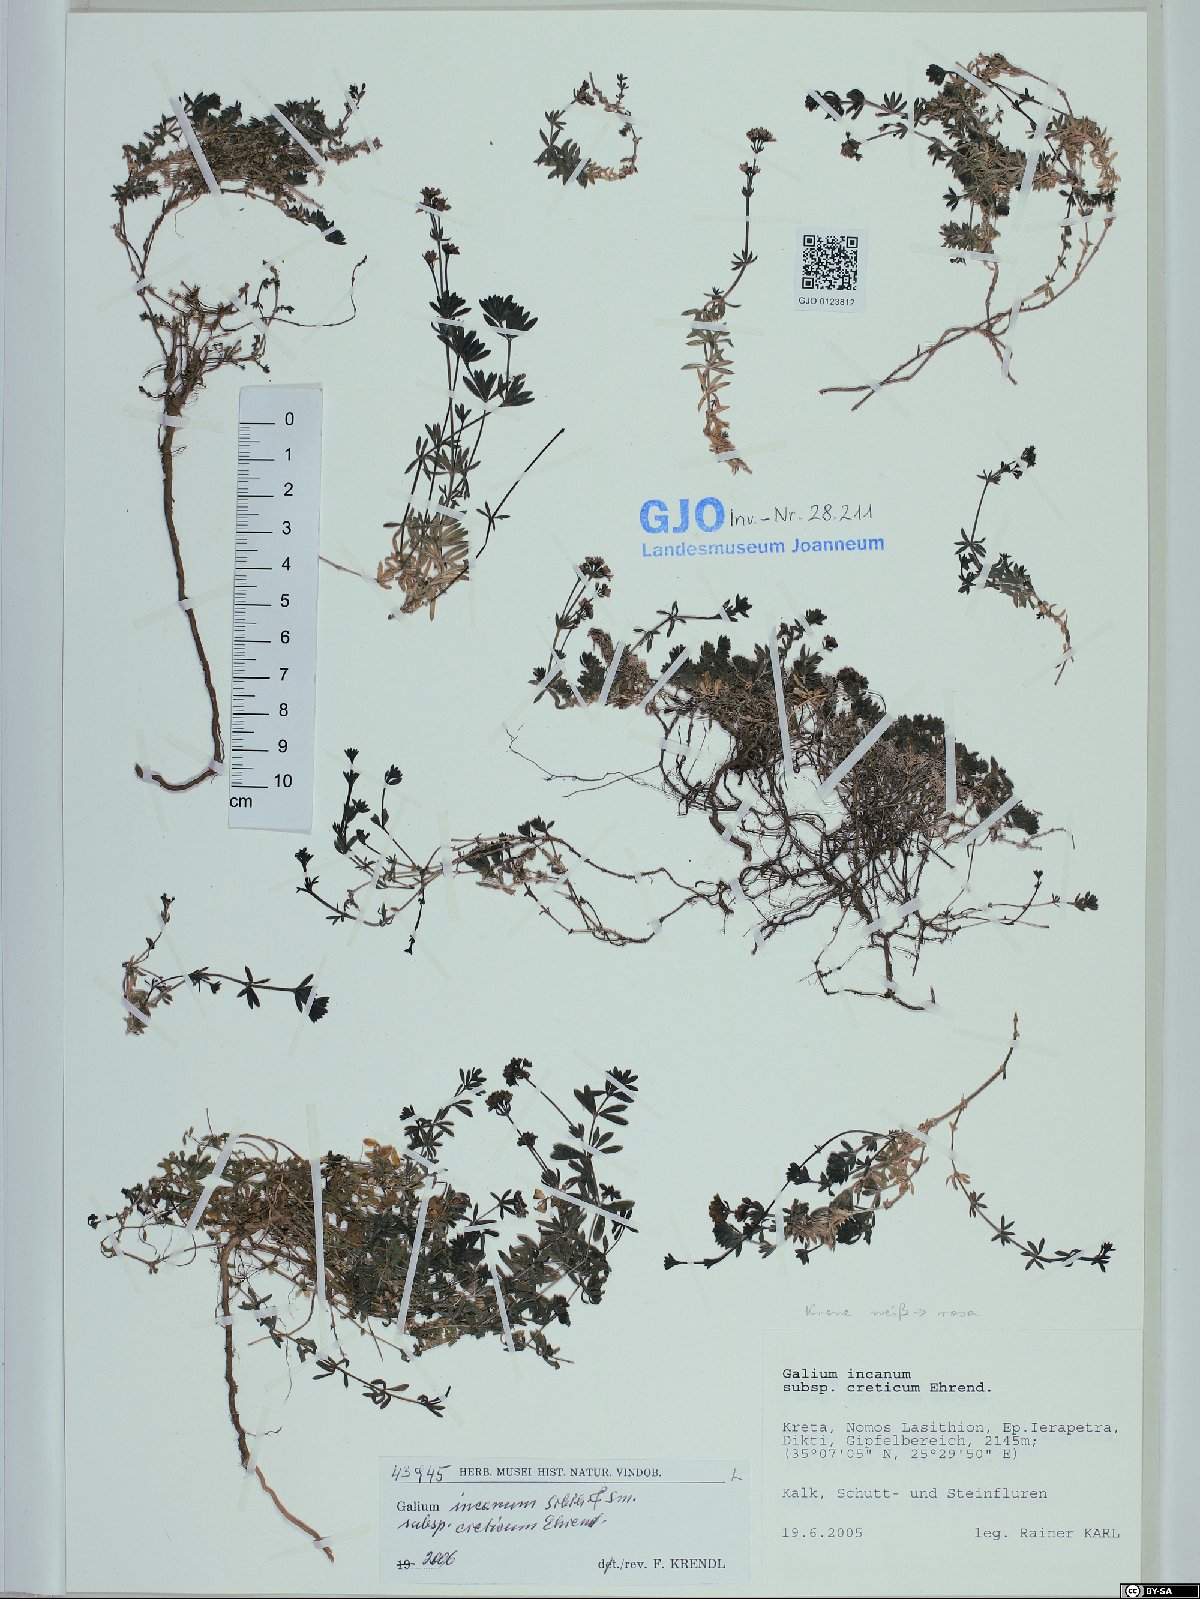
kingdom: Plantae
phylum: Tracheophyta
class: Magnoliopsida
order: Gentianales
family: Rubiaceae
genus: Galium
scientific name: Galium incanum
